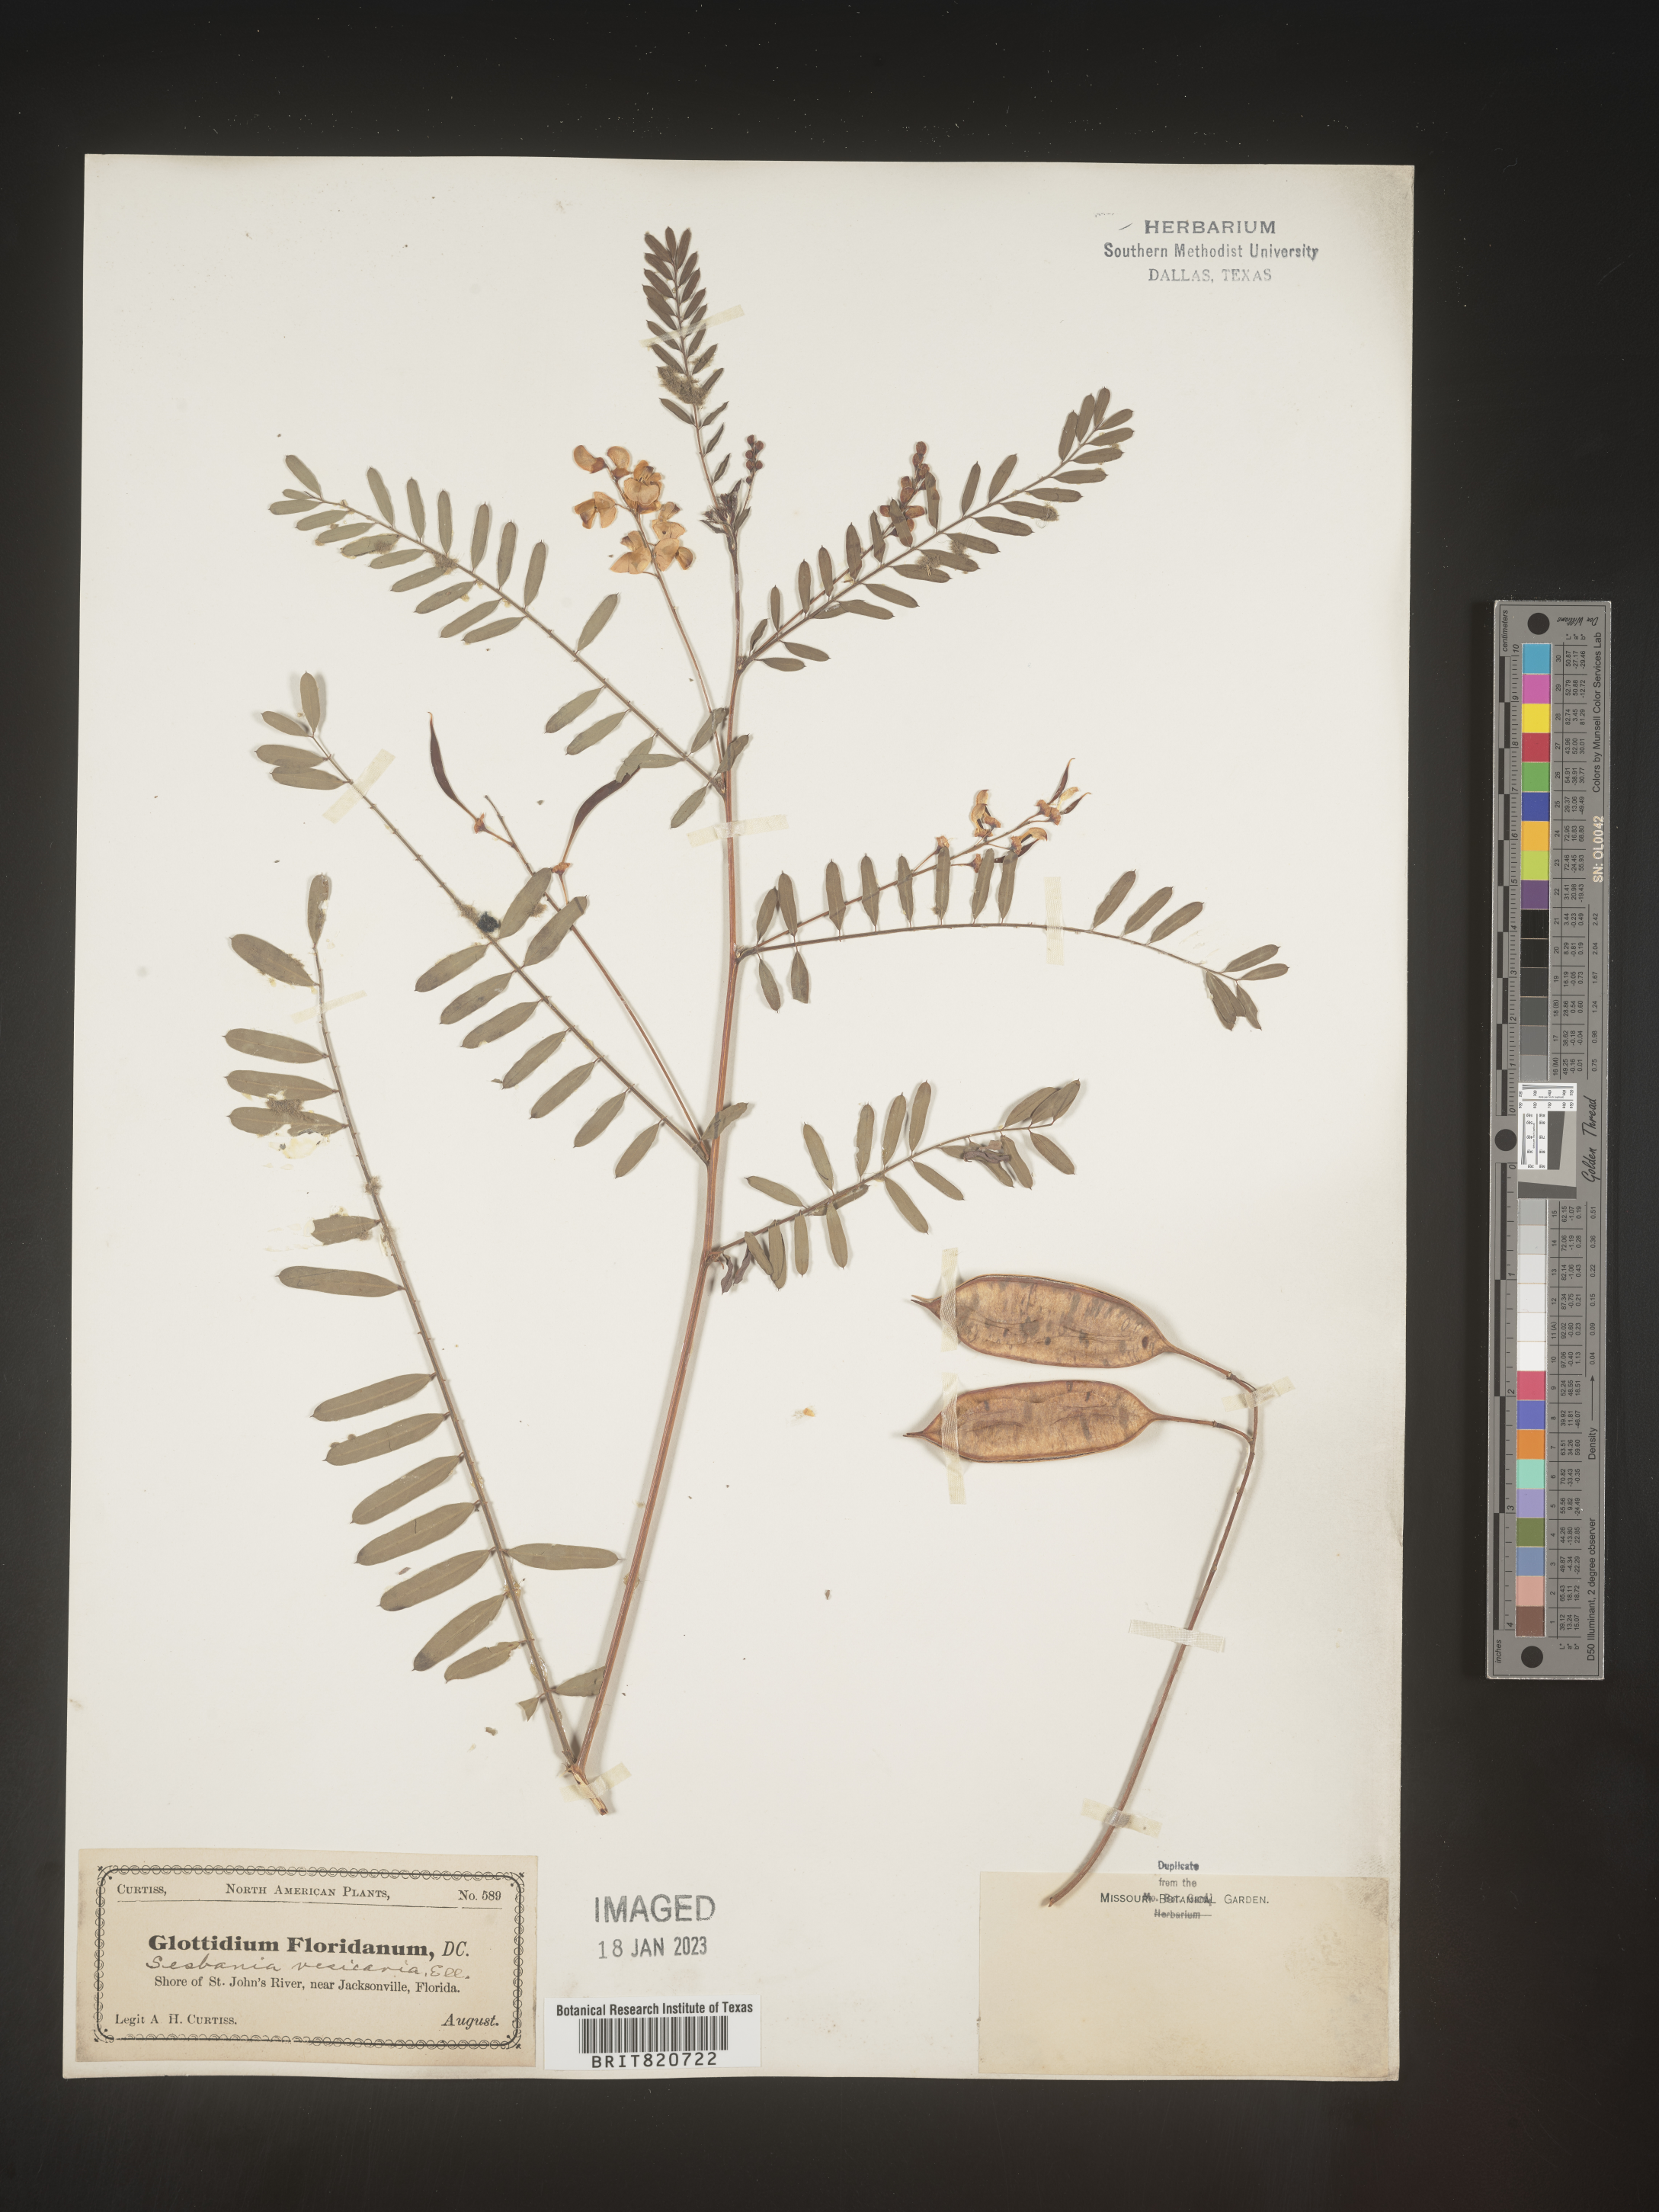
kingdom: Plantae
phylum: Tracheophyta
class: Magnoliopsida
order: Fabales
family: Fabaceae
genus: Sesbania
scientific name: Sesbania vesicaria
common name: Bagpod
